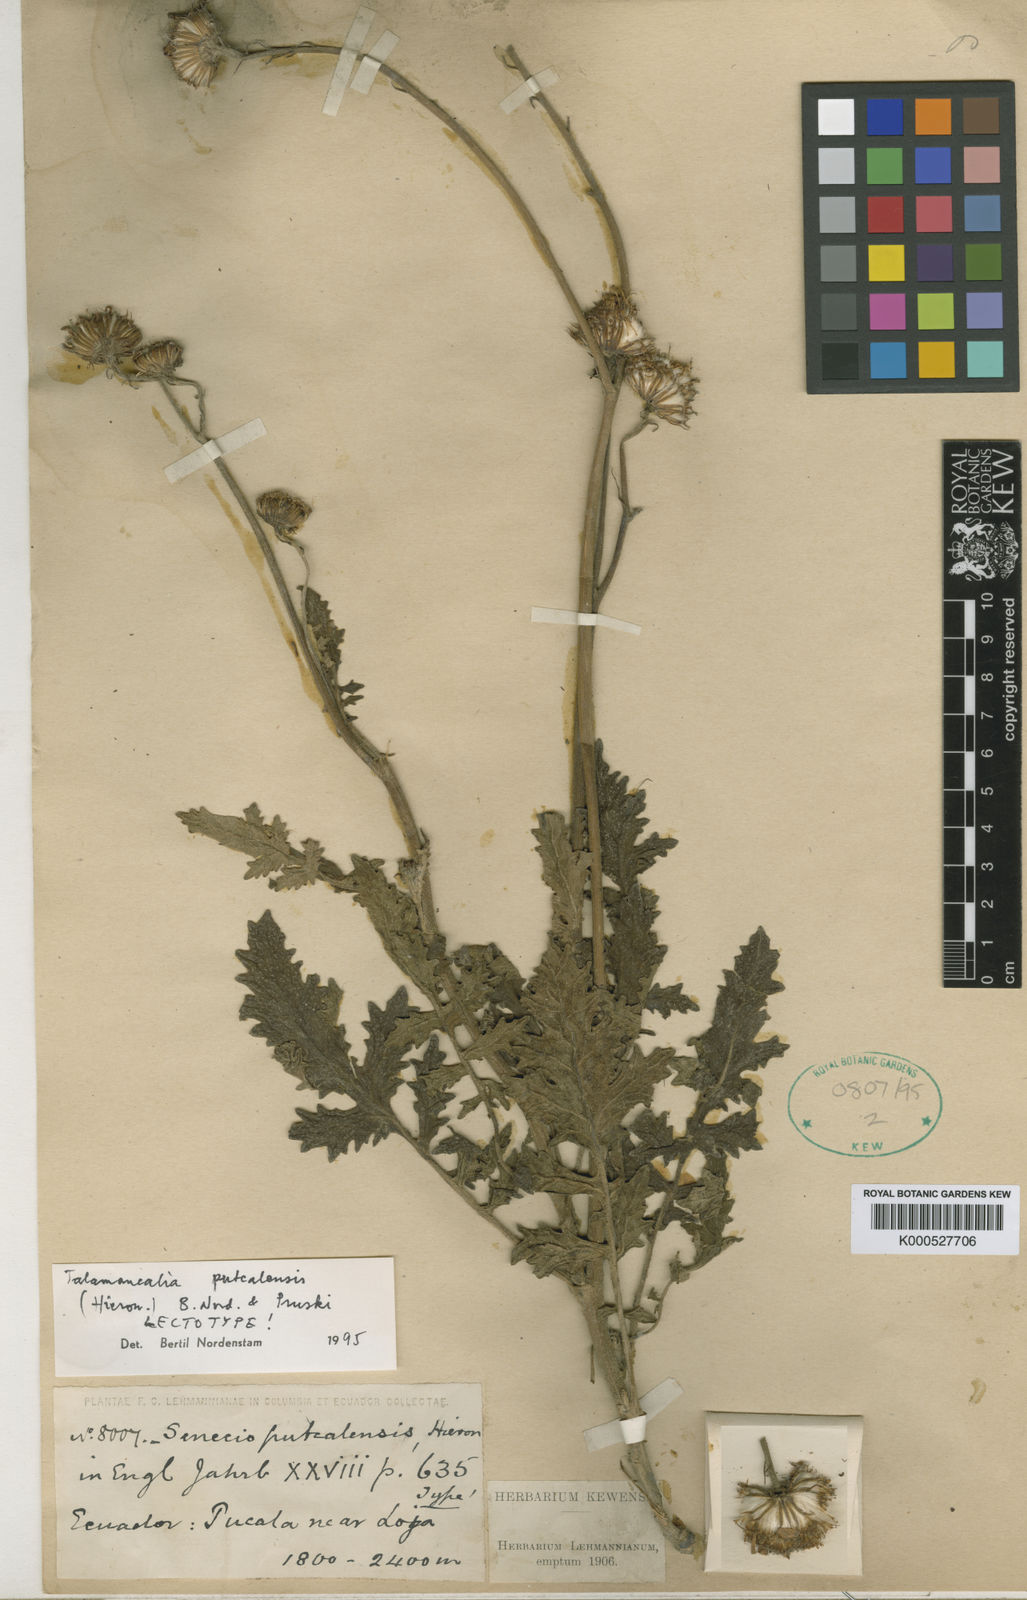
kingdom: Plantae
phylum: Tracheophyta
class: Magnoliopsida
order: Asterales
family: Asteraceae
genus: Lomanthus
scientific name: Lomanthus putcalensis
